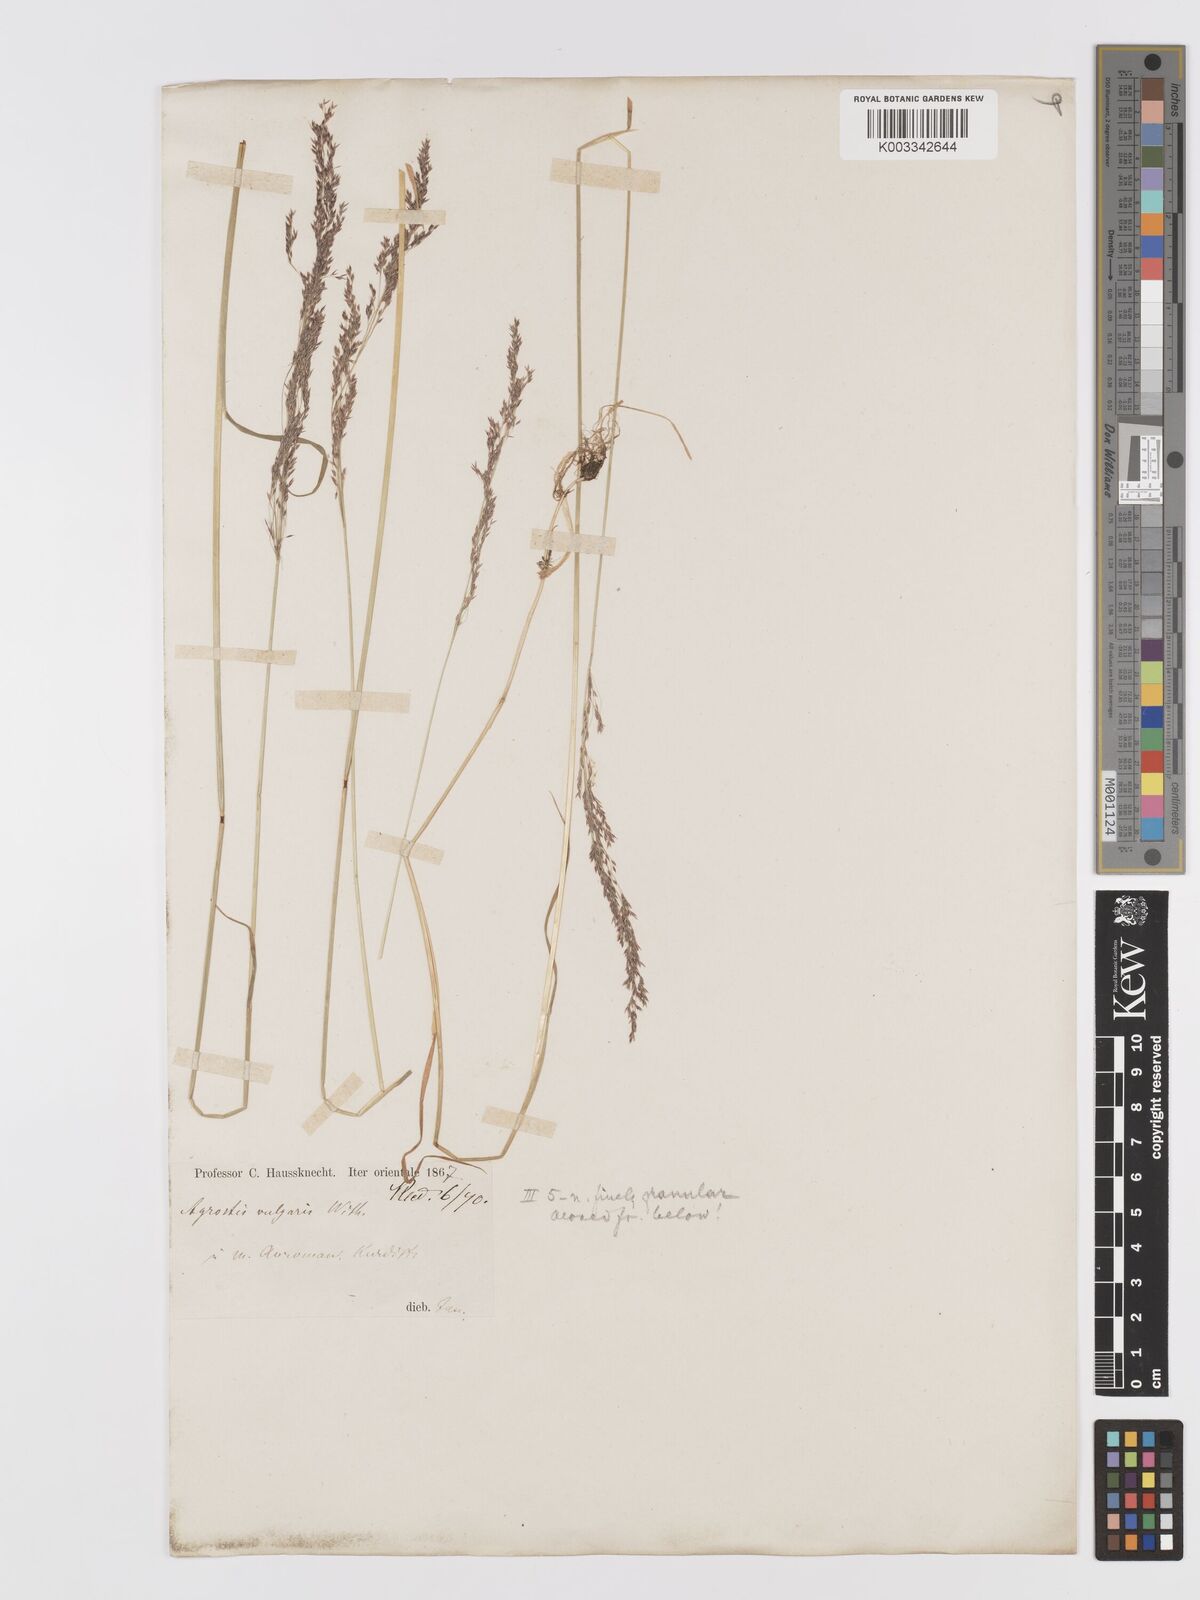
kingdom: Plantae
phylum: Tracheophyta
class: Liliopsida
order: Poales
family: Poaceae
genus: Agrostis
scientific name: Agrostis canina
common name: Velvet bent
